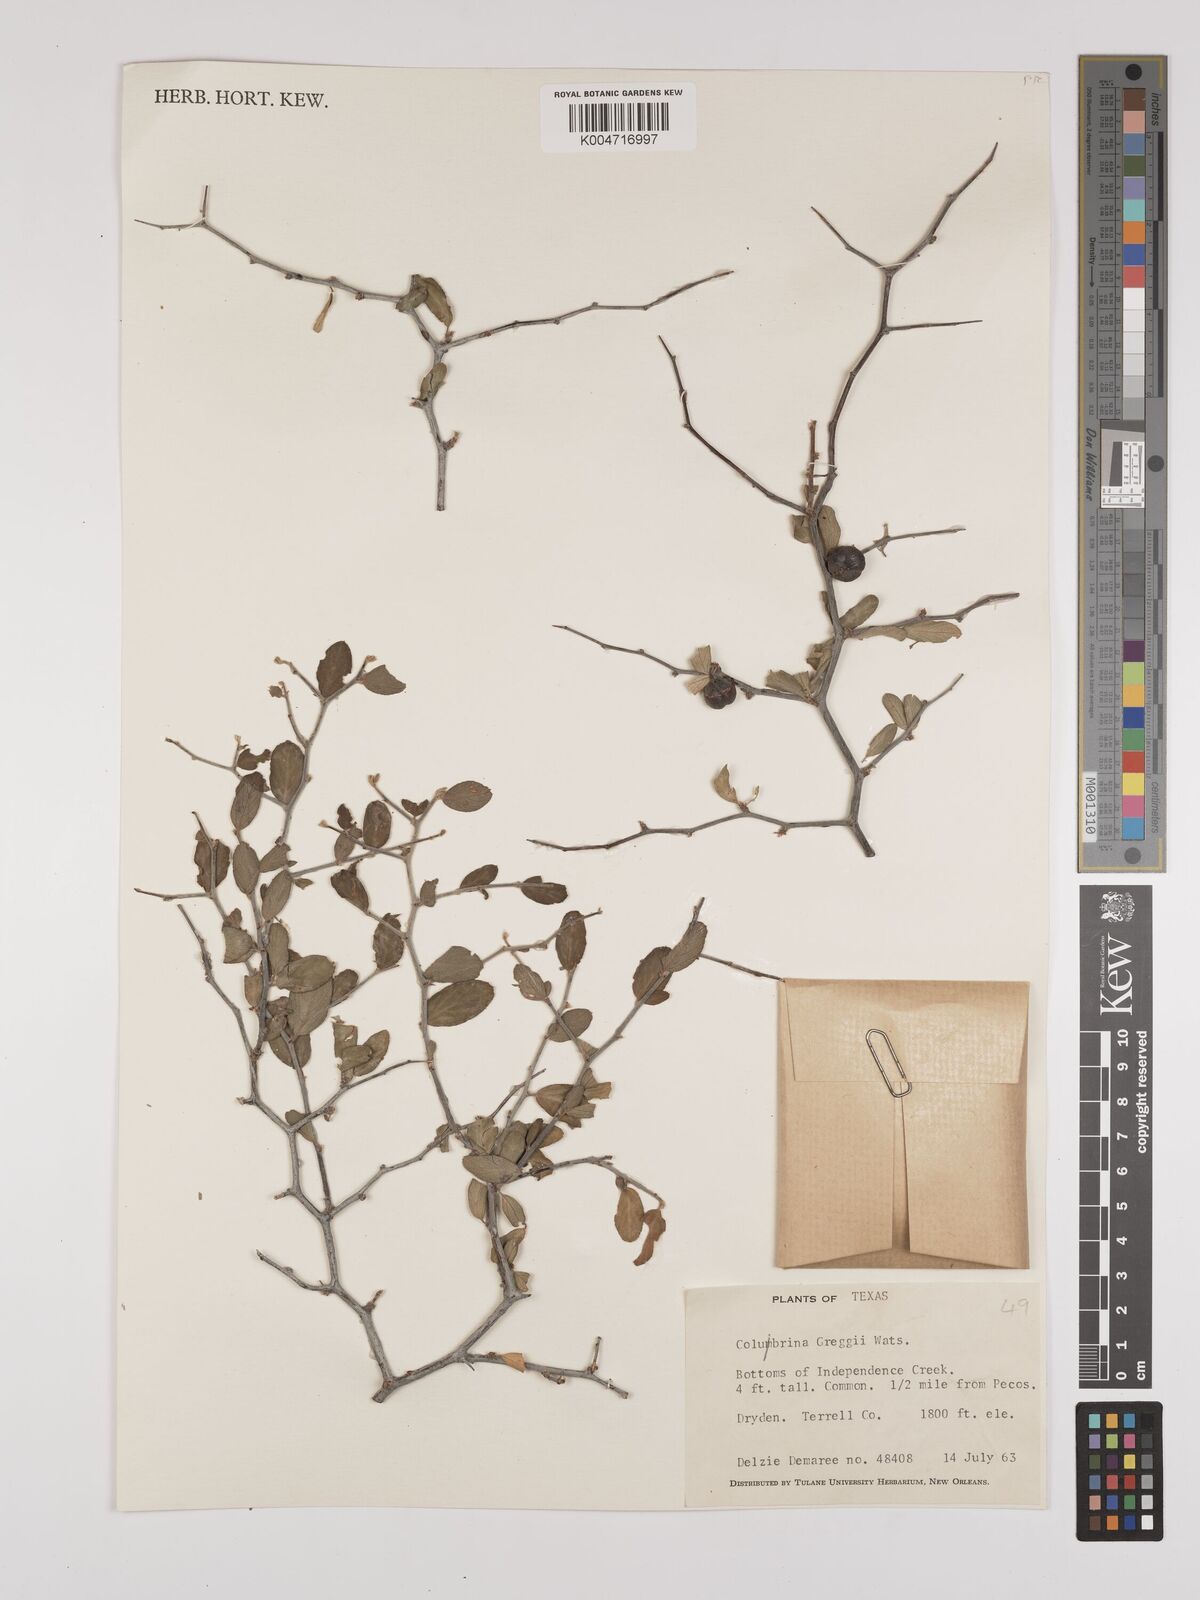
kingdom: Plantae
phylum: Tracheophyta
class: Magnoliopsida
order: Rosales
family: Rhamnaceae
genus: Colubrina
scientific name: Colubrina greggii
